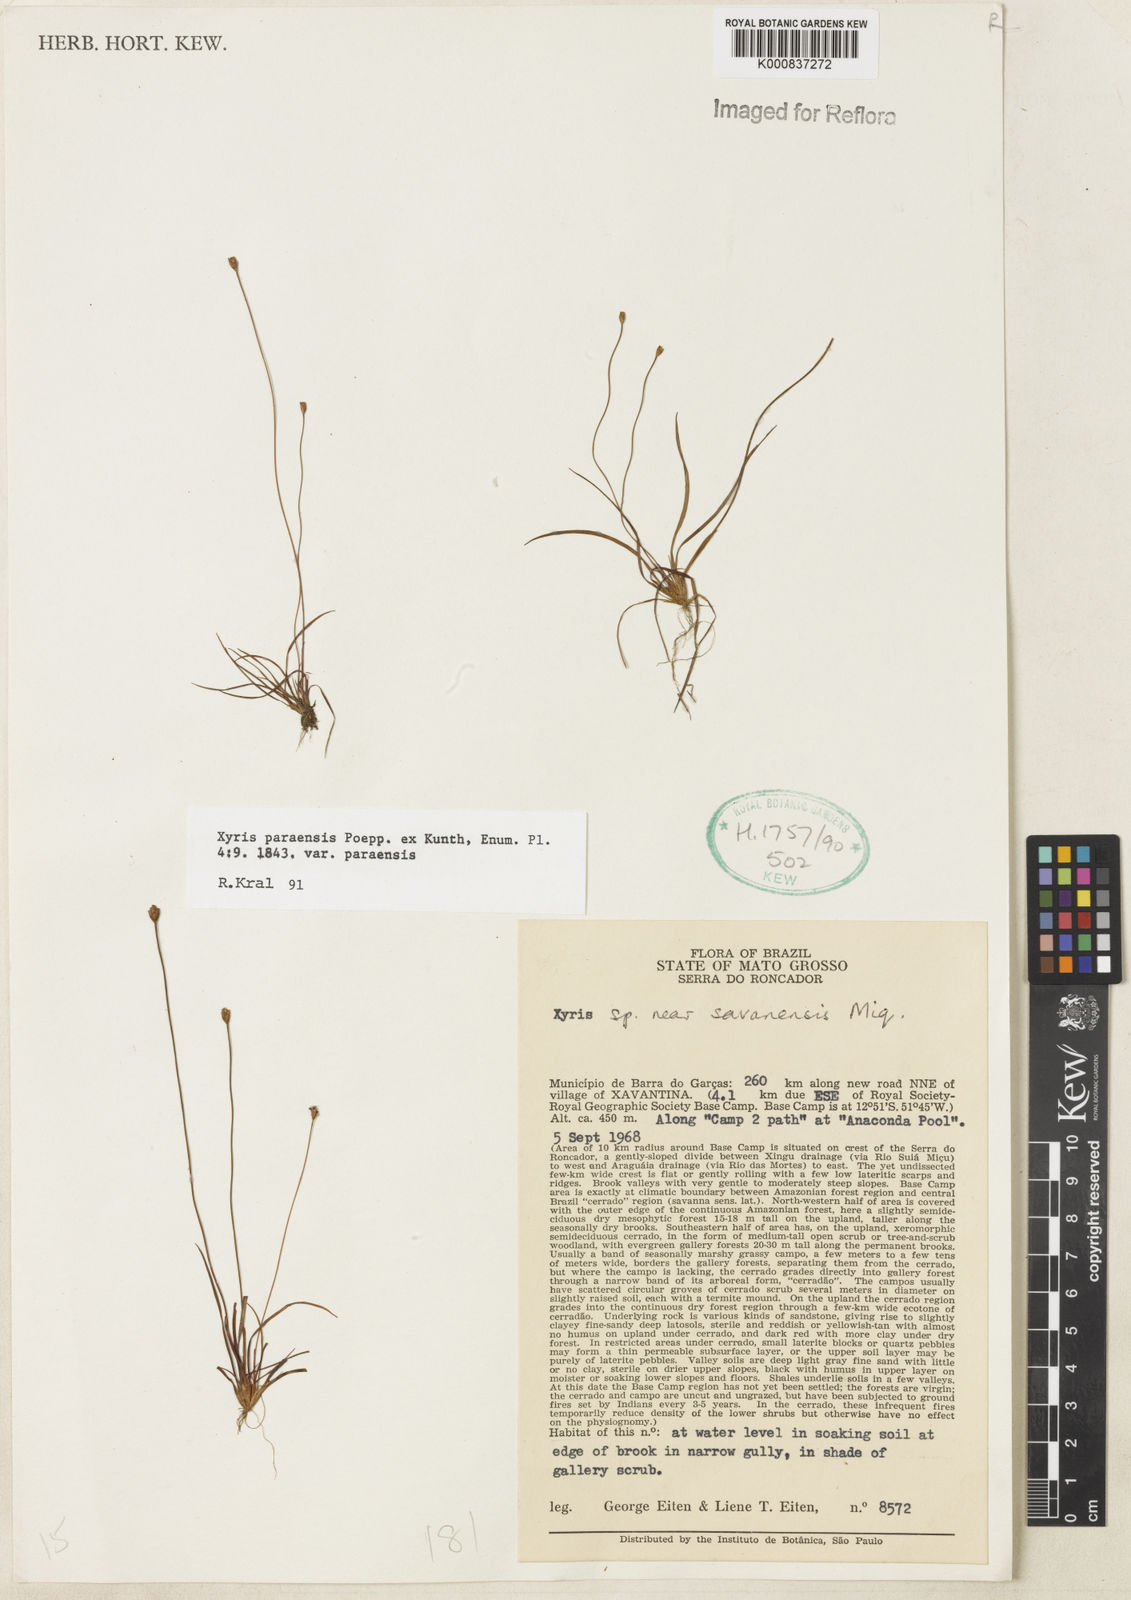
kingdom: Plantae
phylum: Tracheophyta
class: Liliopsida
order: Poales
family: Xyridaceae
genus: Xyris
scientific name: Xyris paraensis
